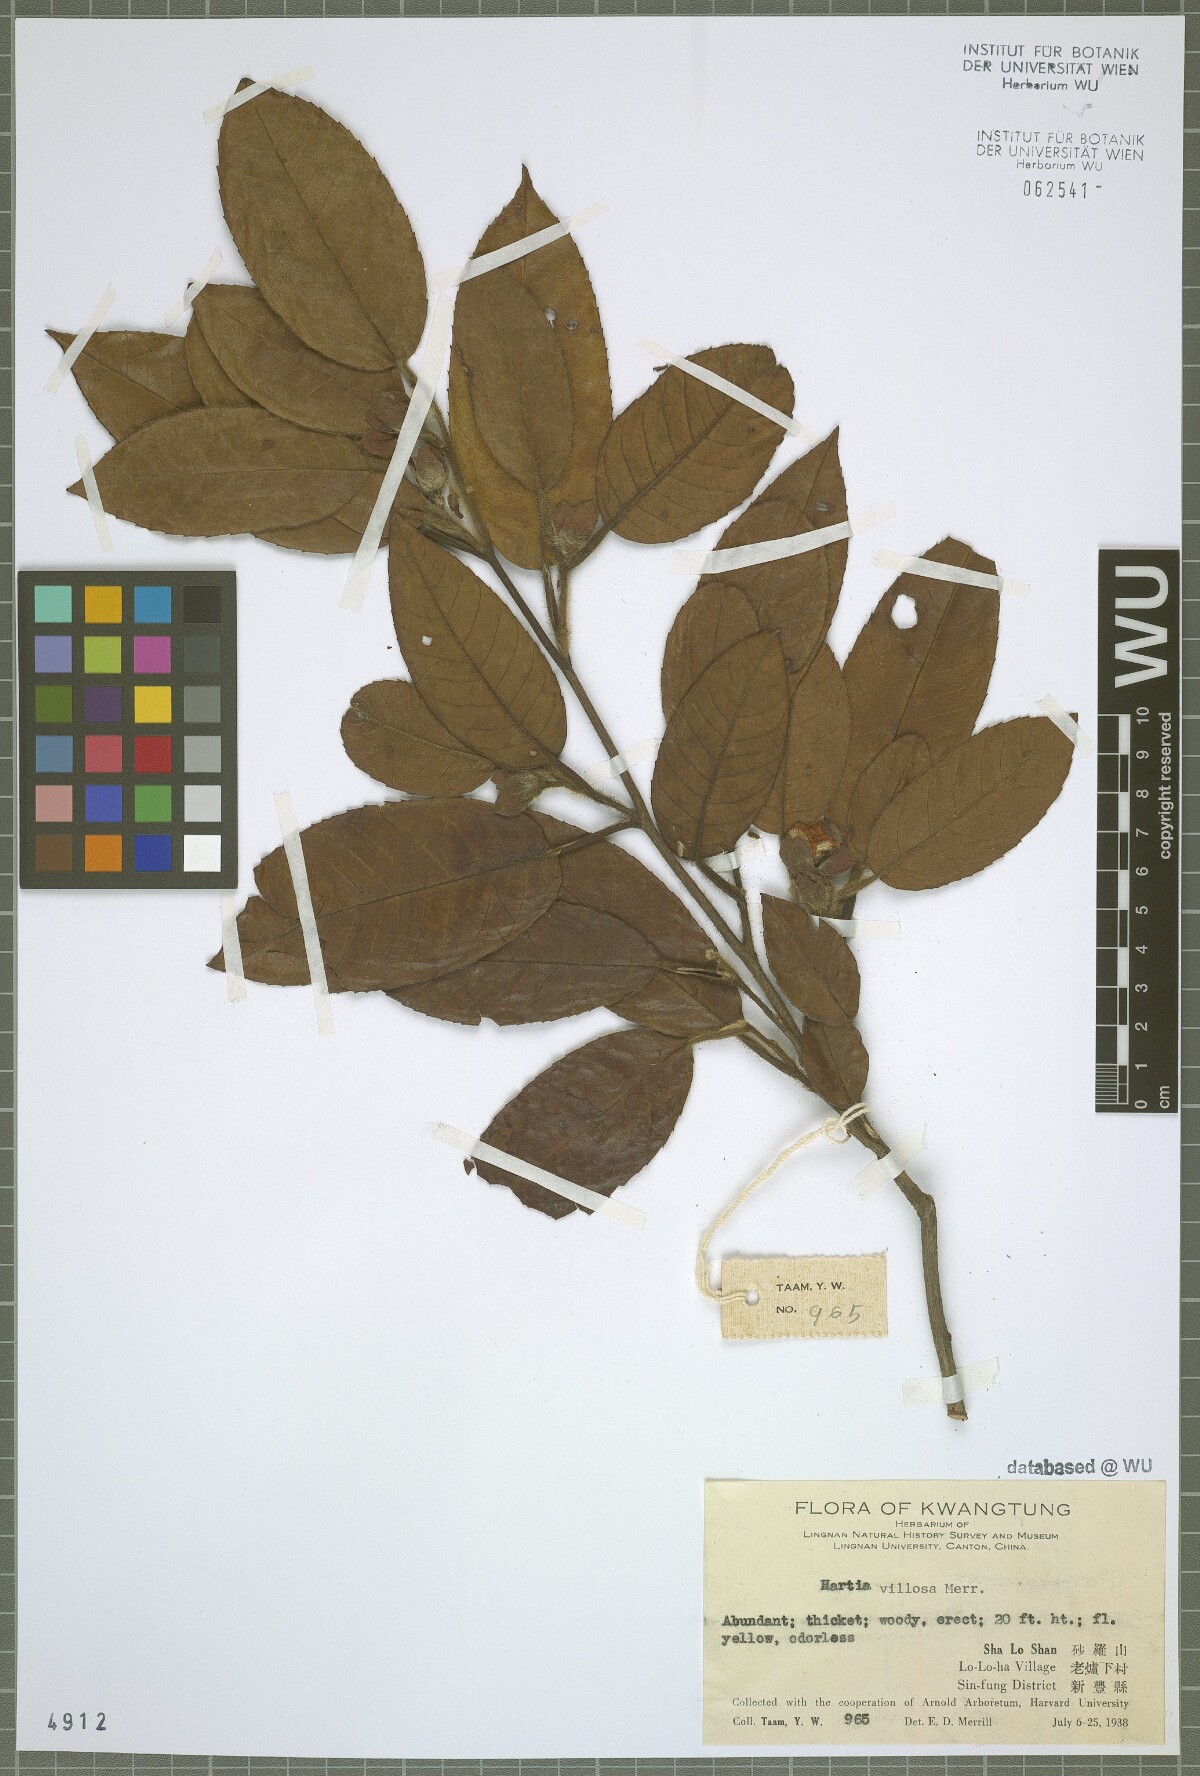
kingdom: Plantae
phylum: Tracheophyta
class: Magnoliopsida
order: Ericales
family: Theaceae
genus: Stewartia
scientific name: Stewartia villosa
